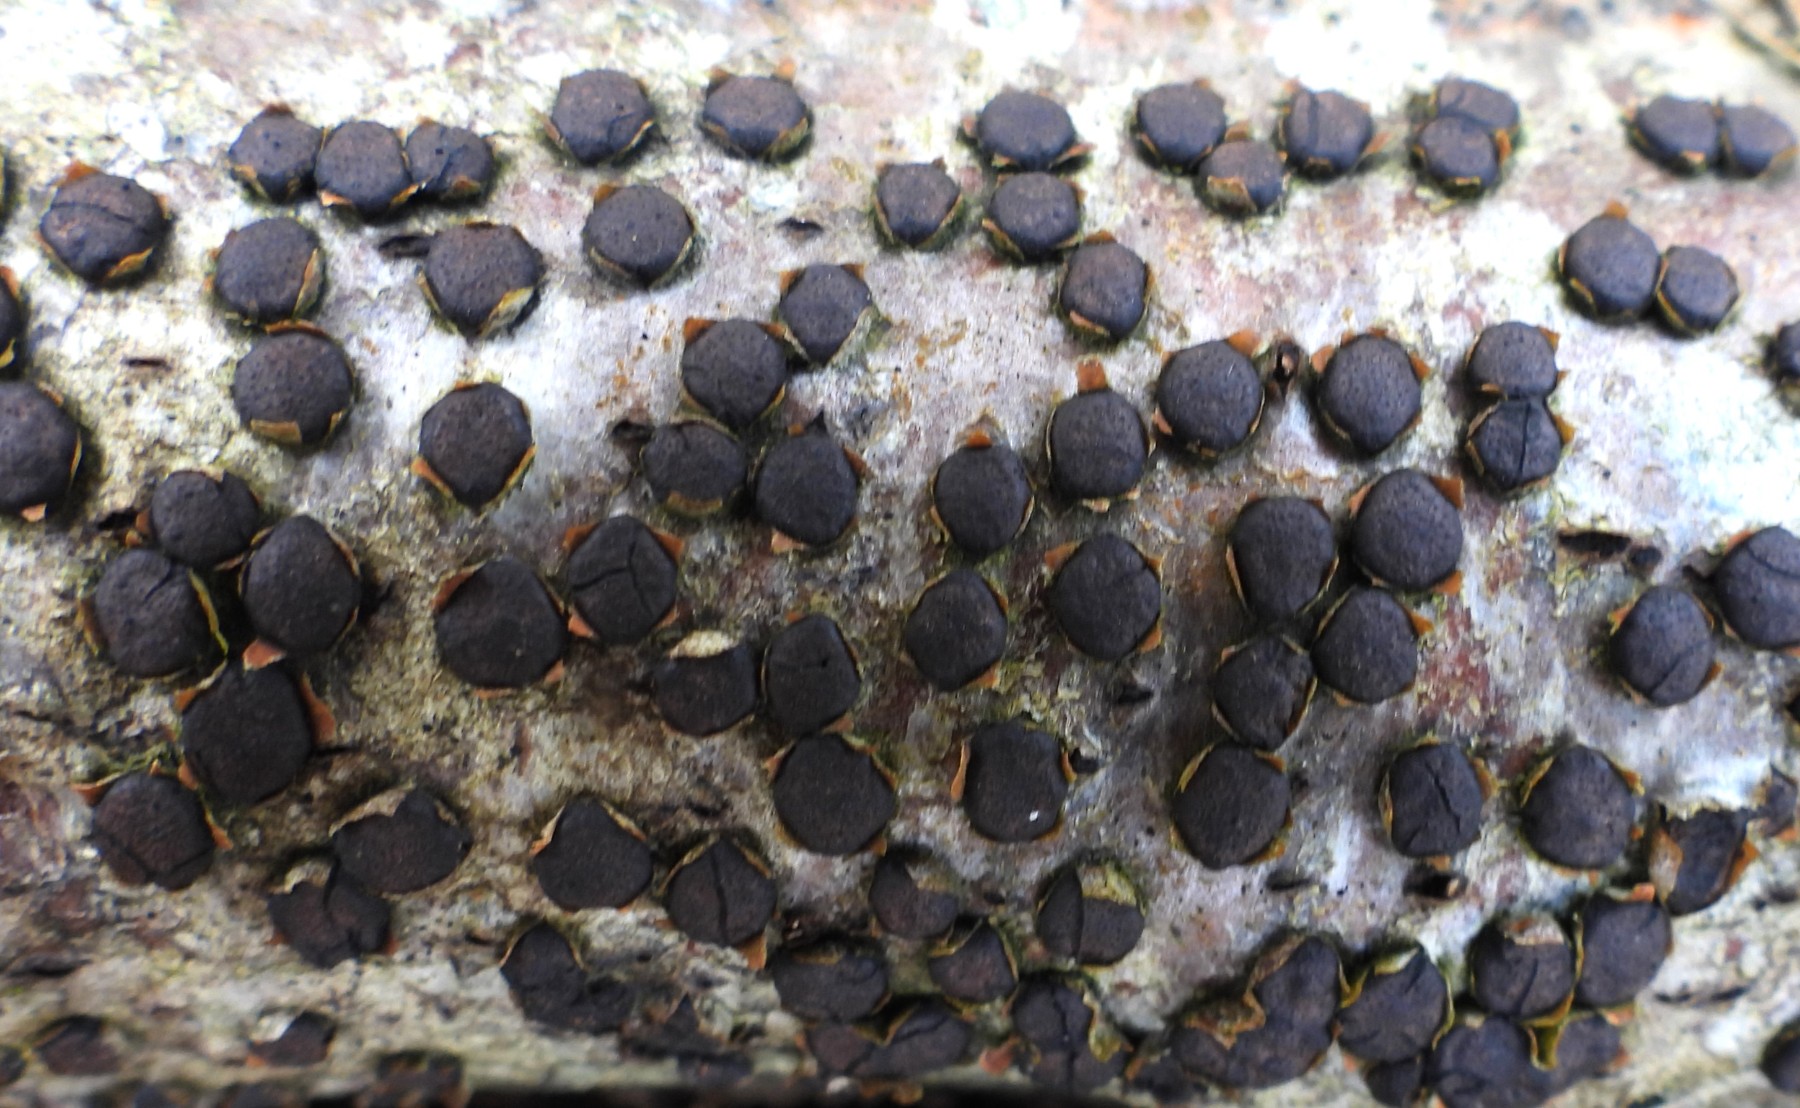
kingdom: Fungi
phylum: Ascomycota
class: Sordariomycetes
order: Xylariales
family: Diatrypaceae
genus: Diatrype
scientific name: Diatrype disciformis
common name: kant-kulskorpe
